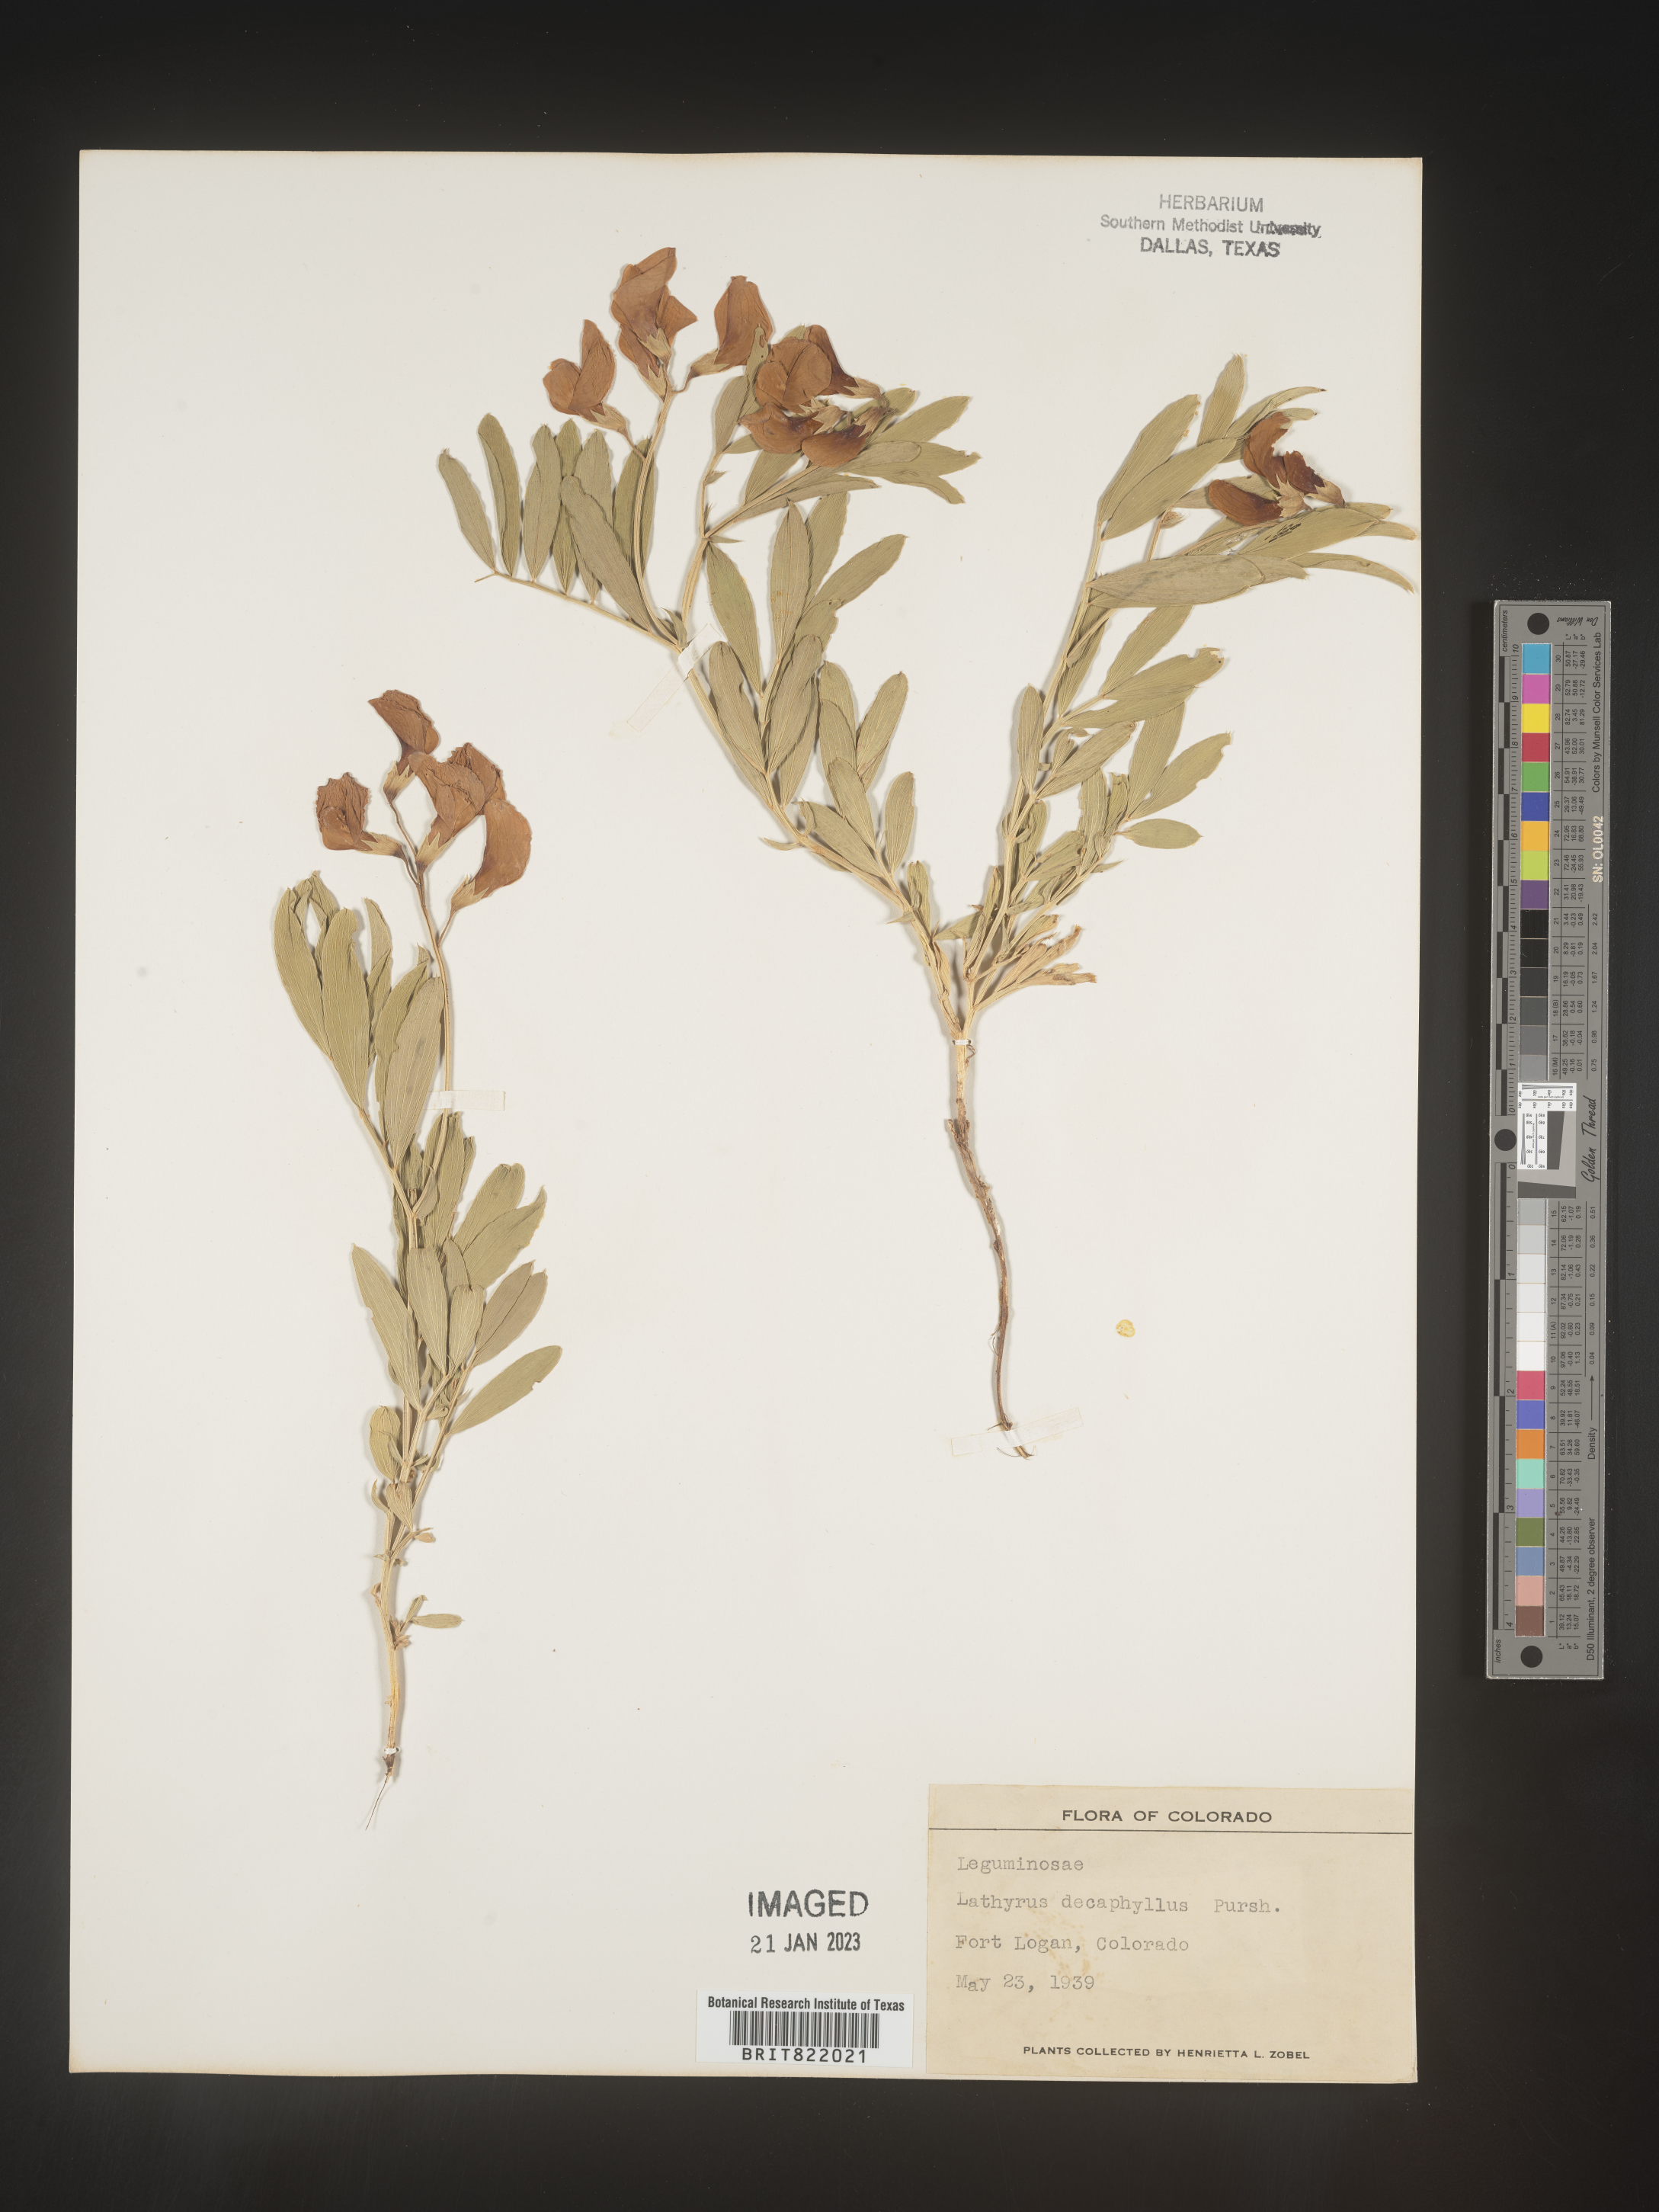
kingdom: Plantae
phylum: Tracheophyta
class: Magnoliopsida
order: Fabales
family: Fabaceae
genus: Lathyrus
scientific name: Lathyrus
